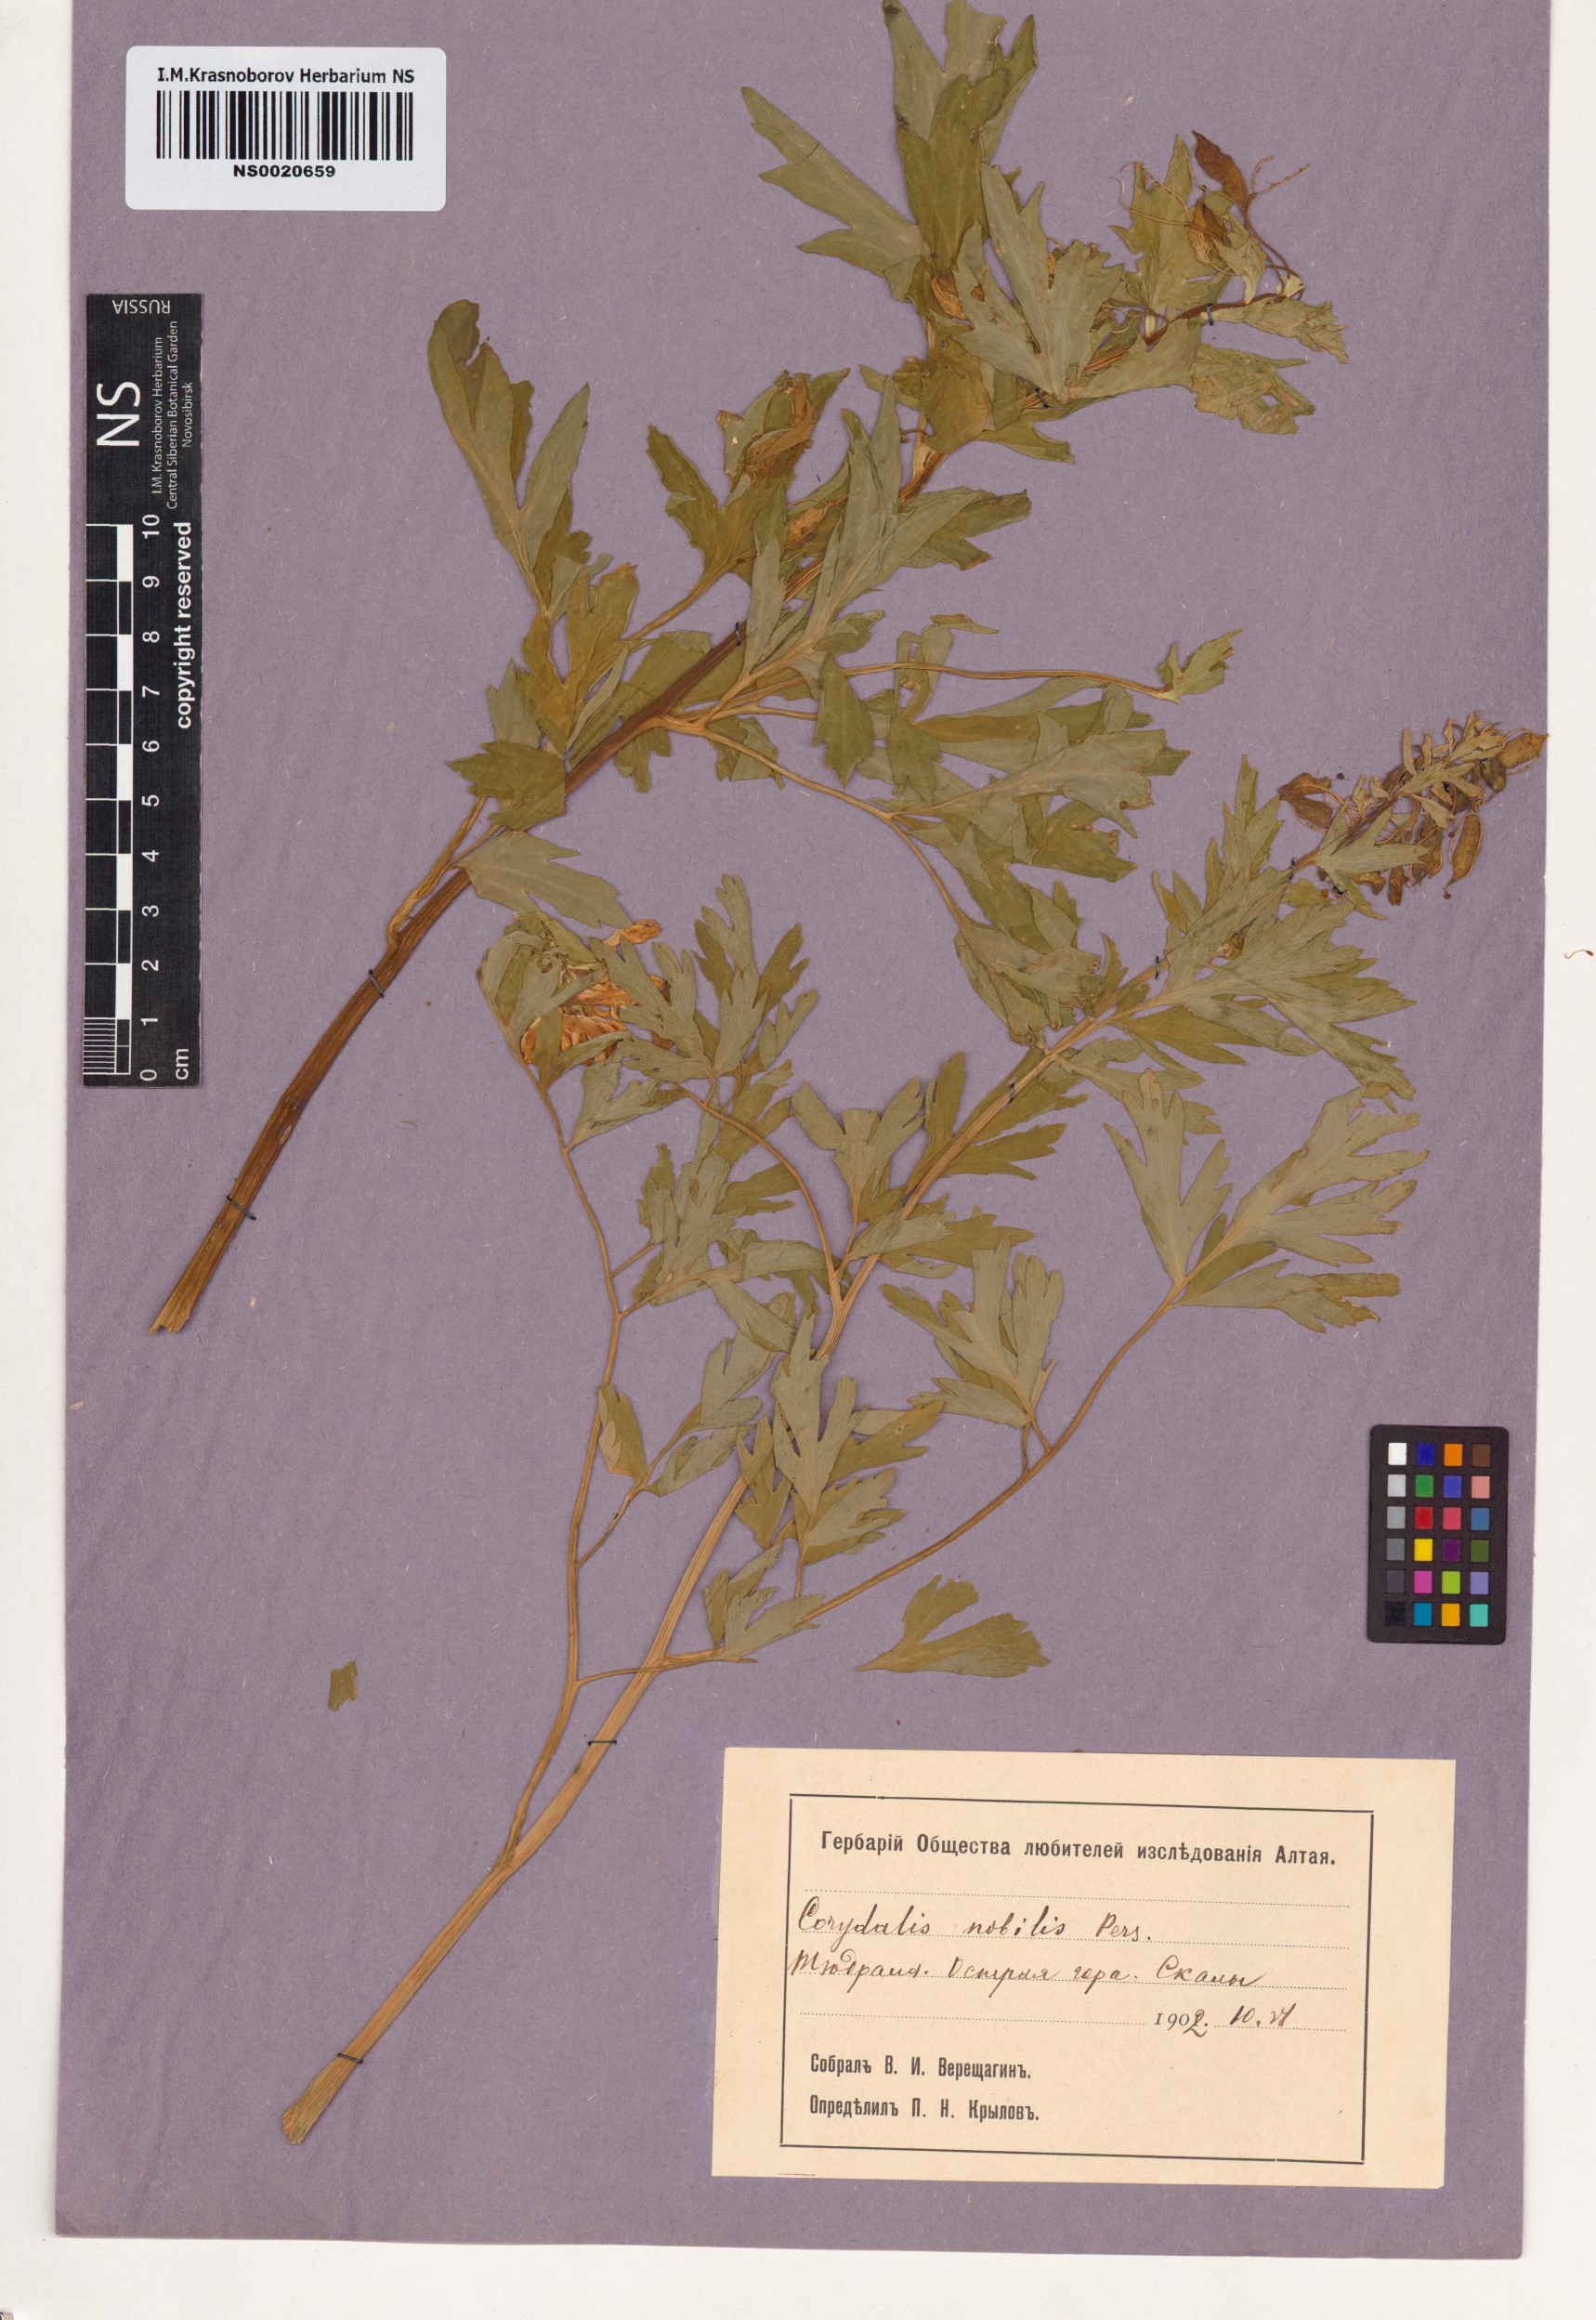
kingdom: Plantae
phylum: Tracheophyta
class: Magnoliopsida
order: Ranunculales
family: Papaveraceae
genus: Corydalis
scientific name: Corydalis nobilis
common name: Siberian corydalis
